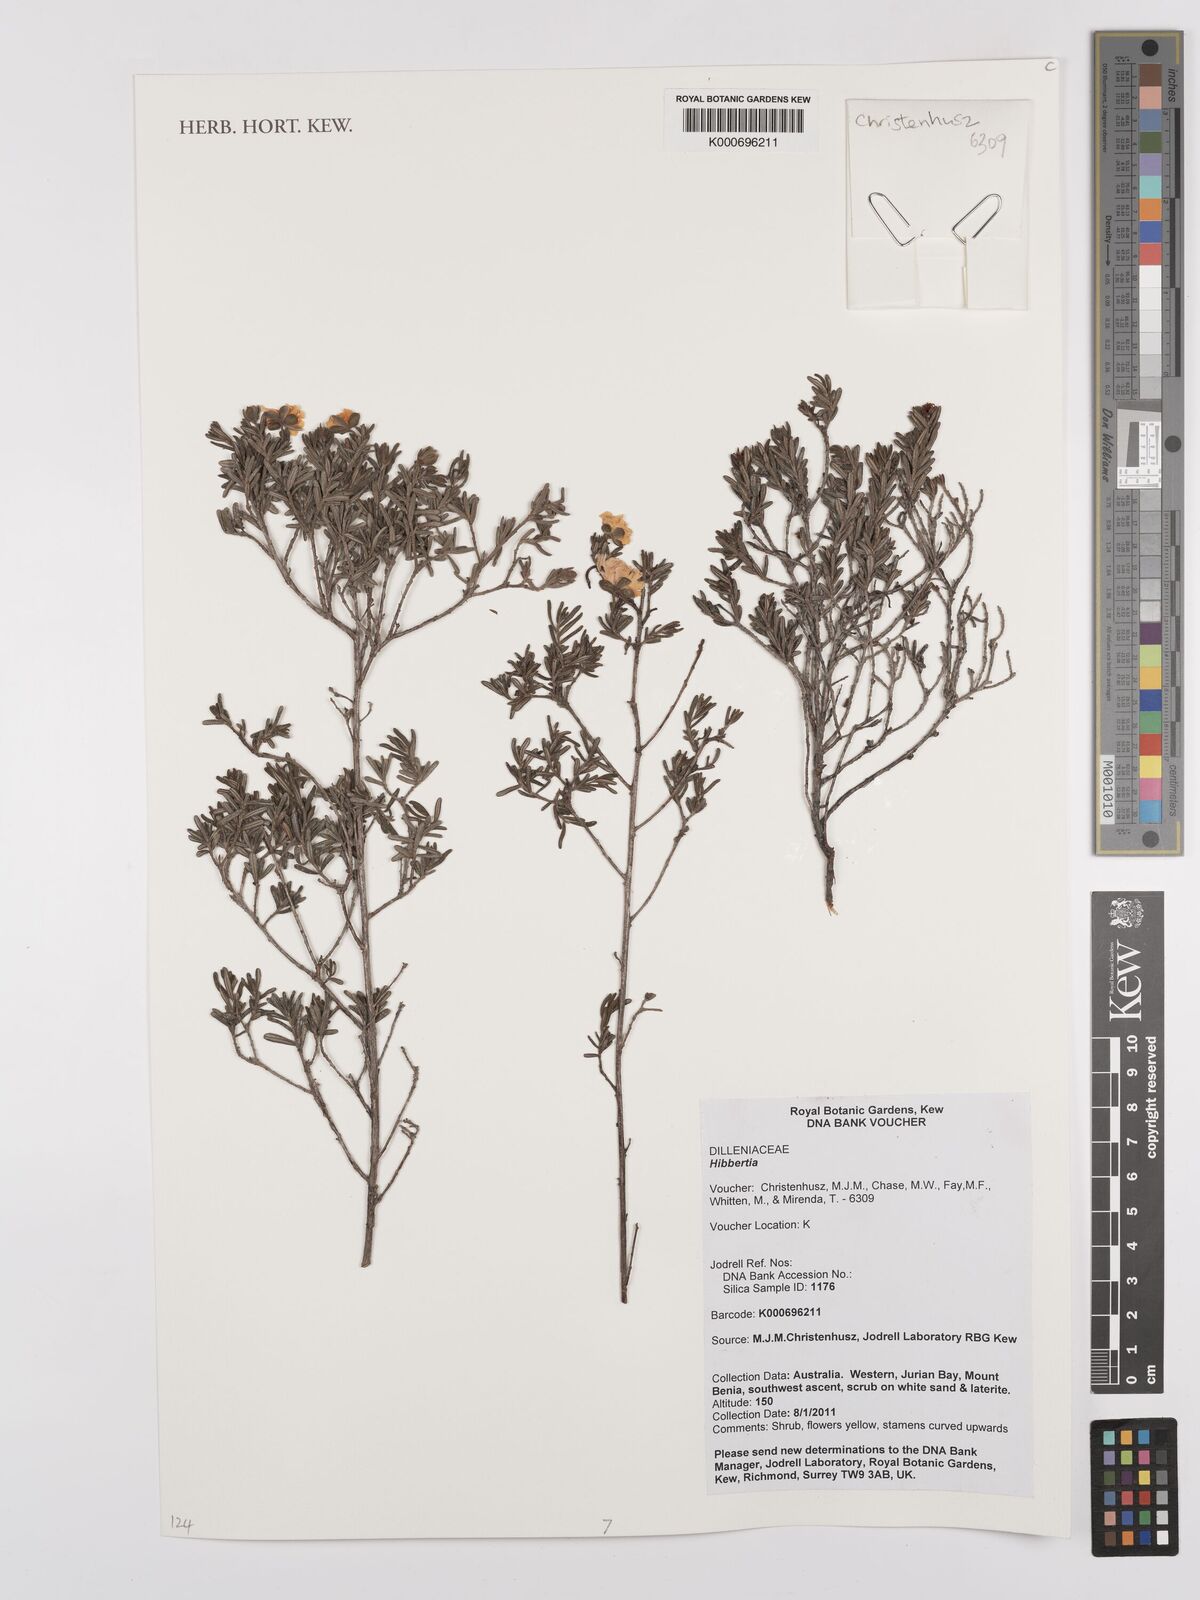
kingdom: Plantae
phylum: Tracheophyta
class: Magnoliopsida
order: Dilleniales
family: Dilleniaceae
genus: Hibbertia
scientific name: Hibbertia
